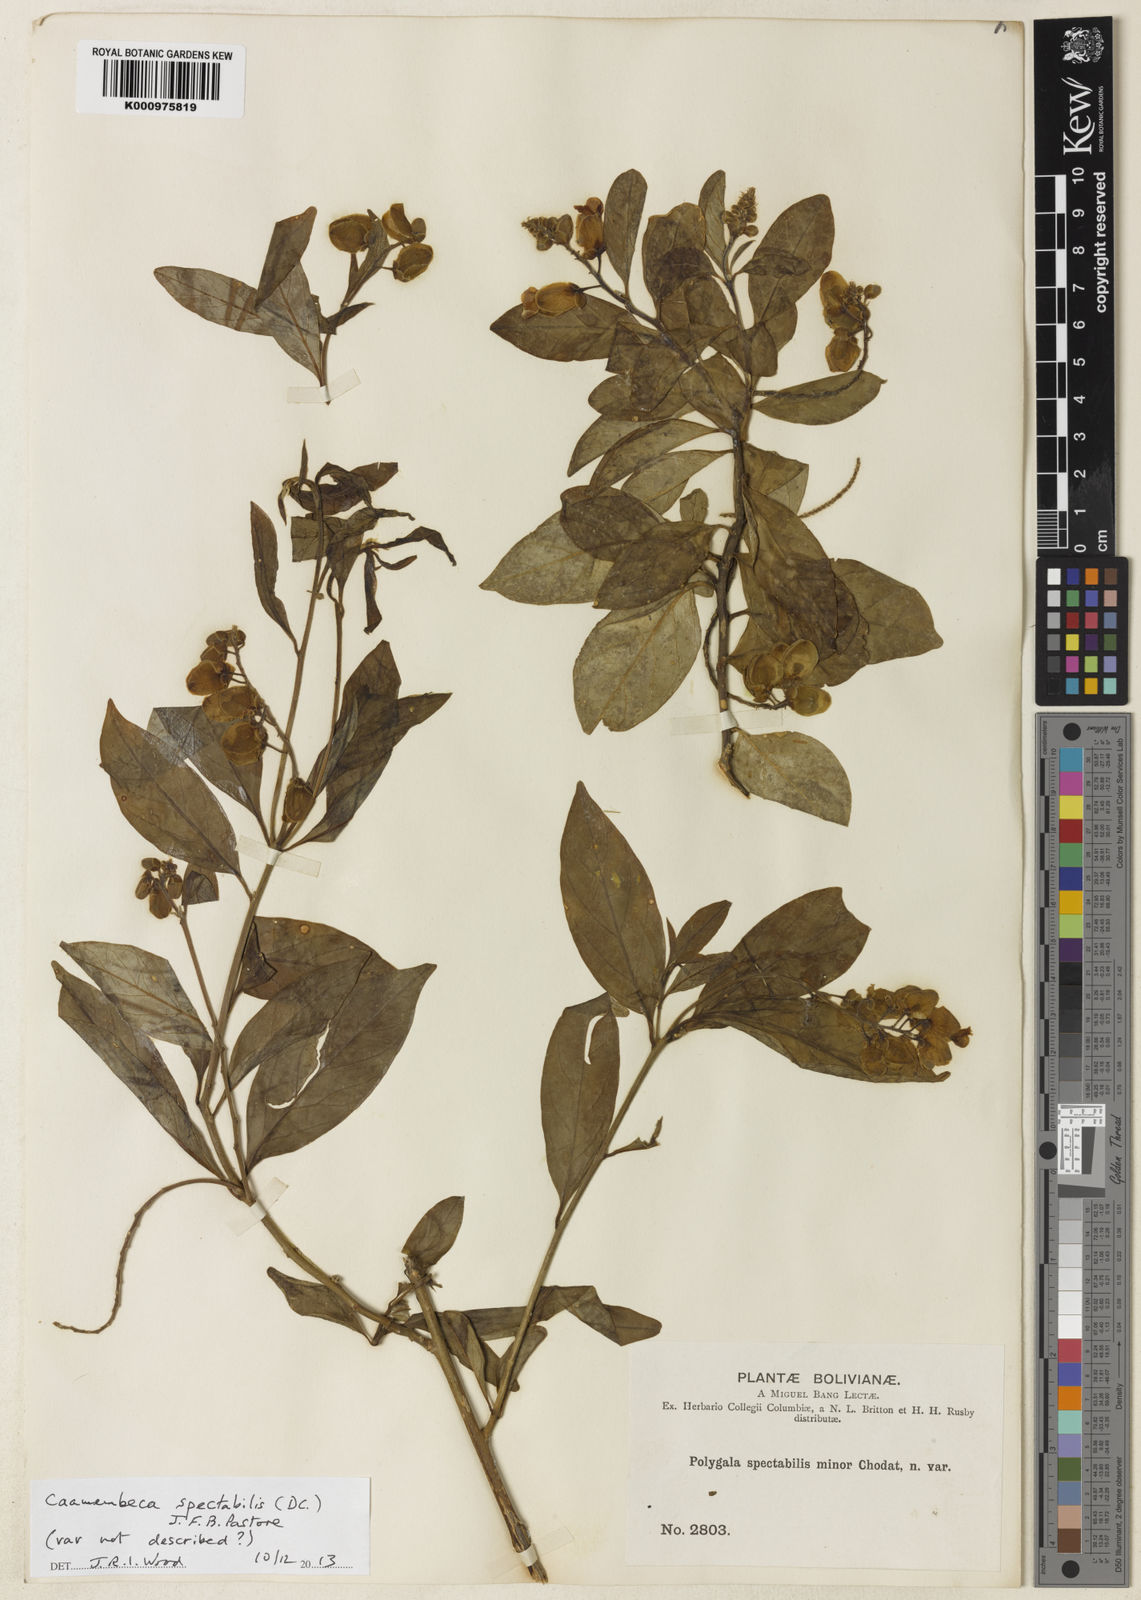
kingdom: Plantae
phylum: Tracheophyta
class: Magnoliopsida
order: Fabales
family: Polygalaceae
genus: Caamembeca
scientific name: Caamembeca spectabilis
